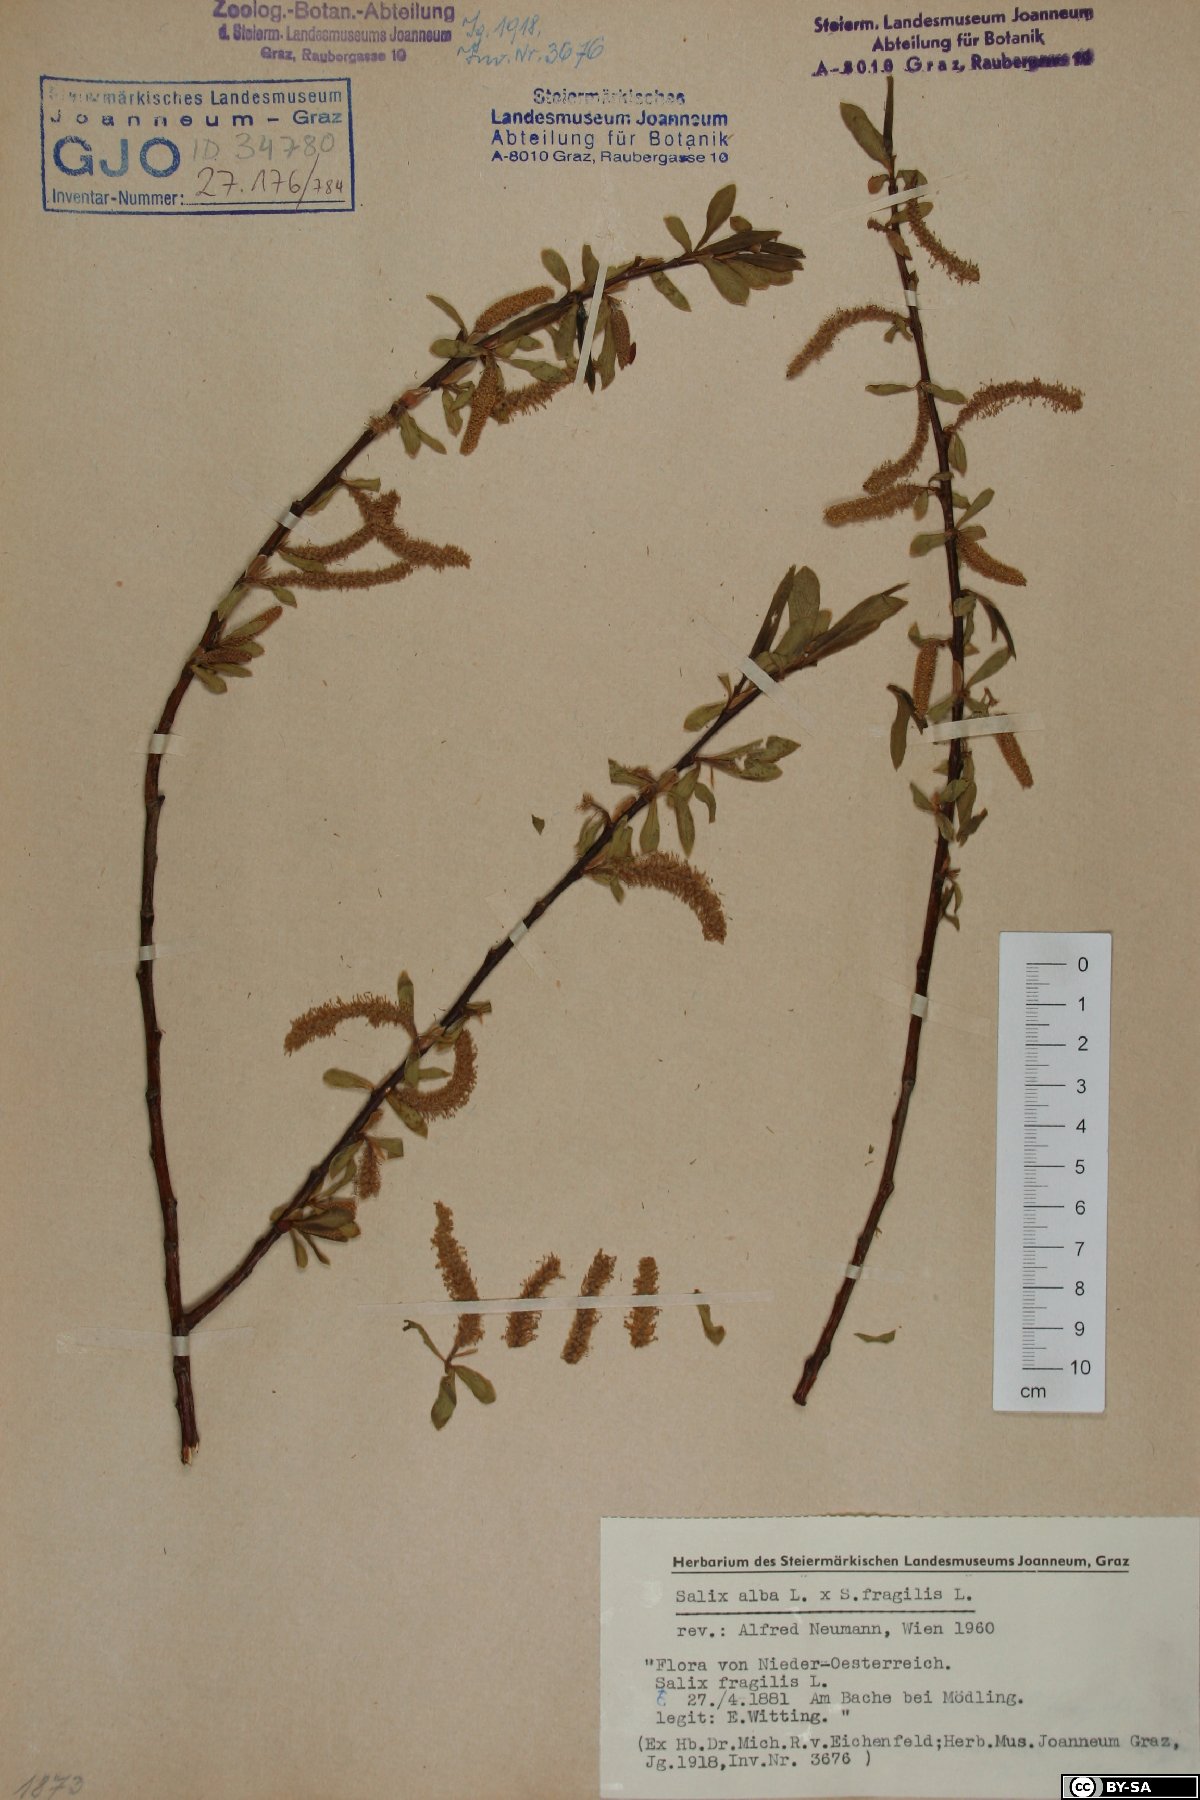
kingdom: Plantae
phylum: Tracheophyta
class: Magnoliopsida
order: Malpighiales
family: Salicaceae
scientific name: Salicaceae
